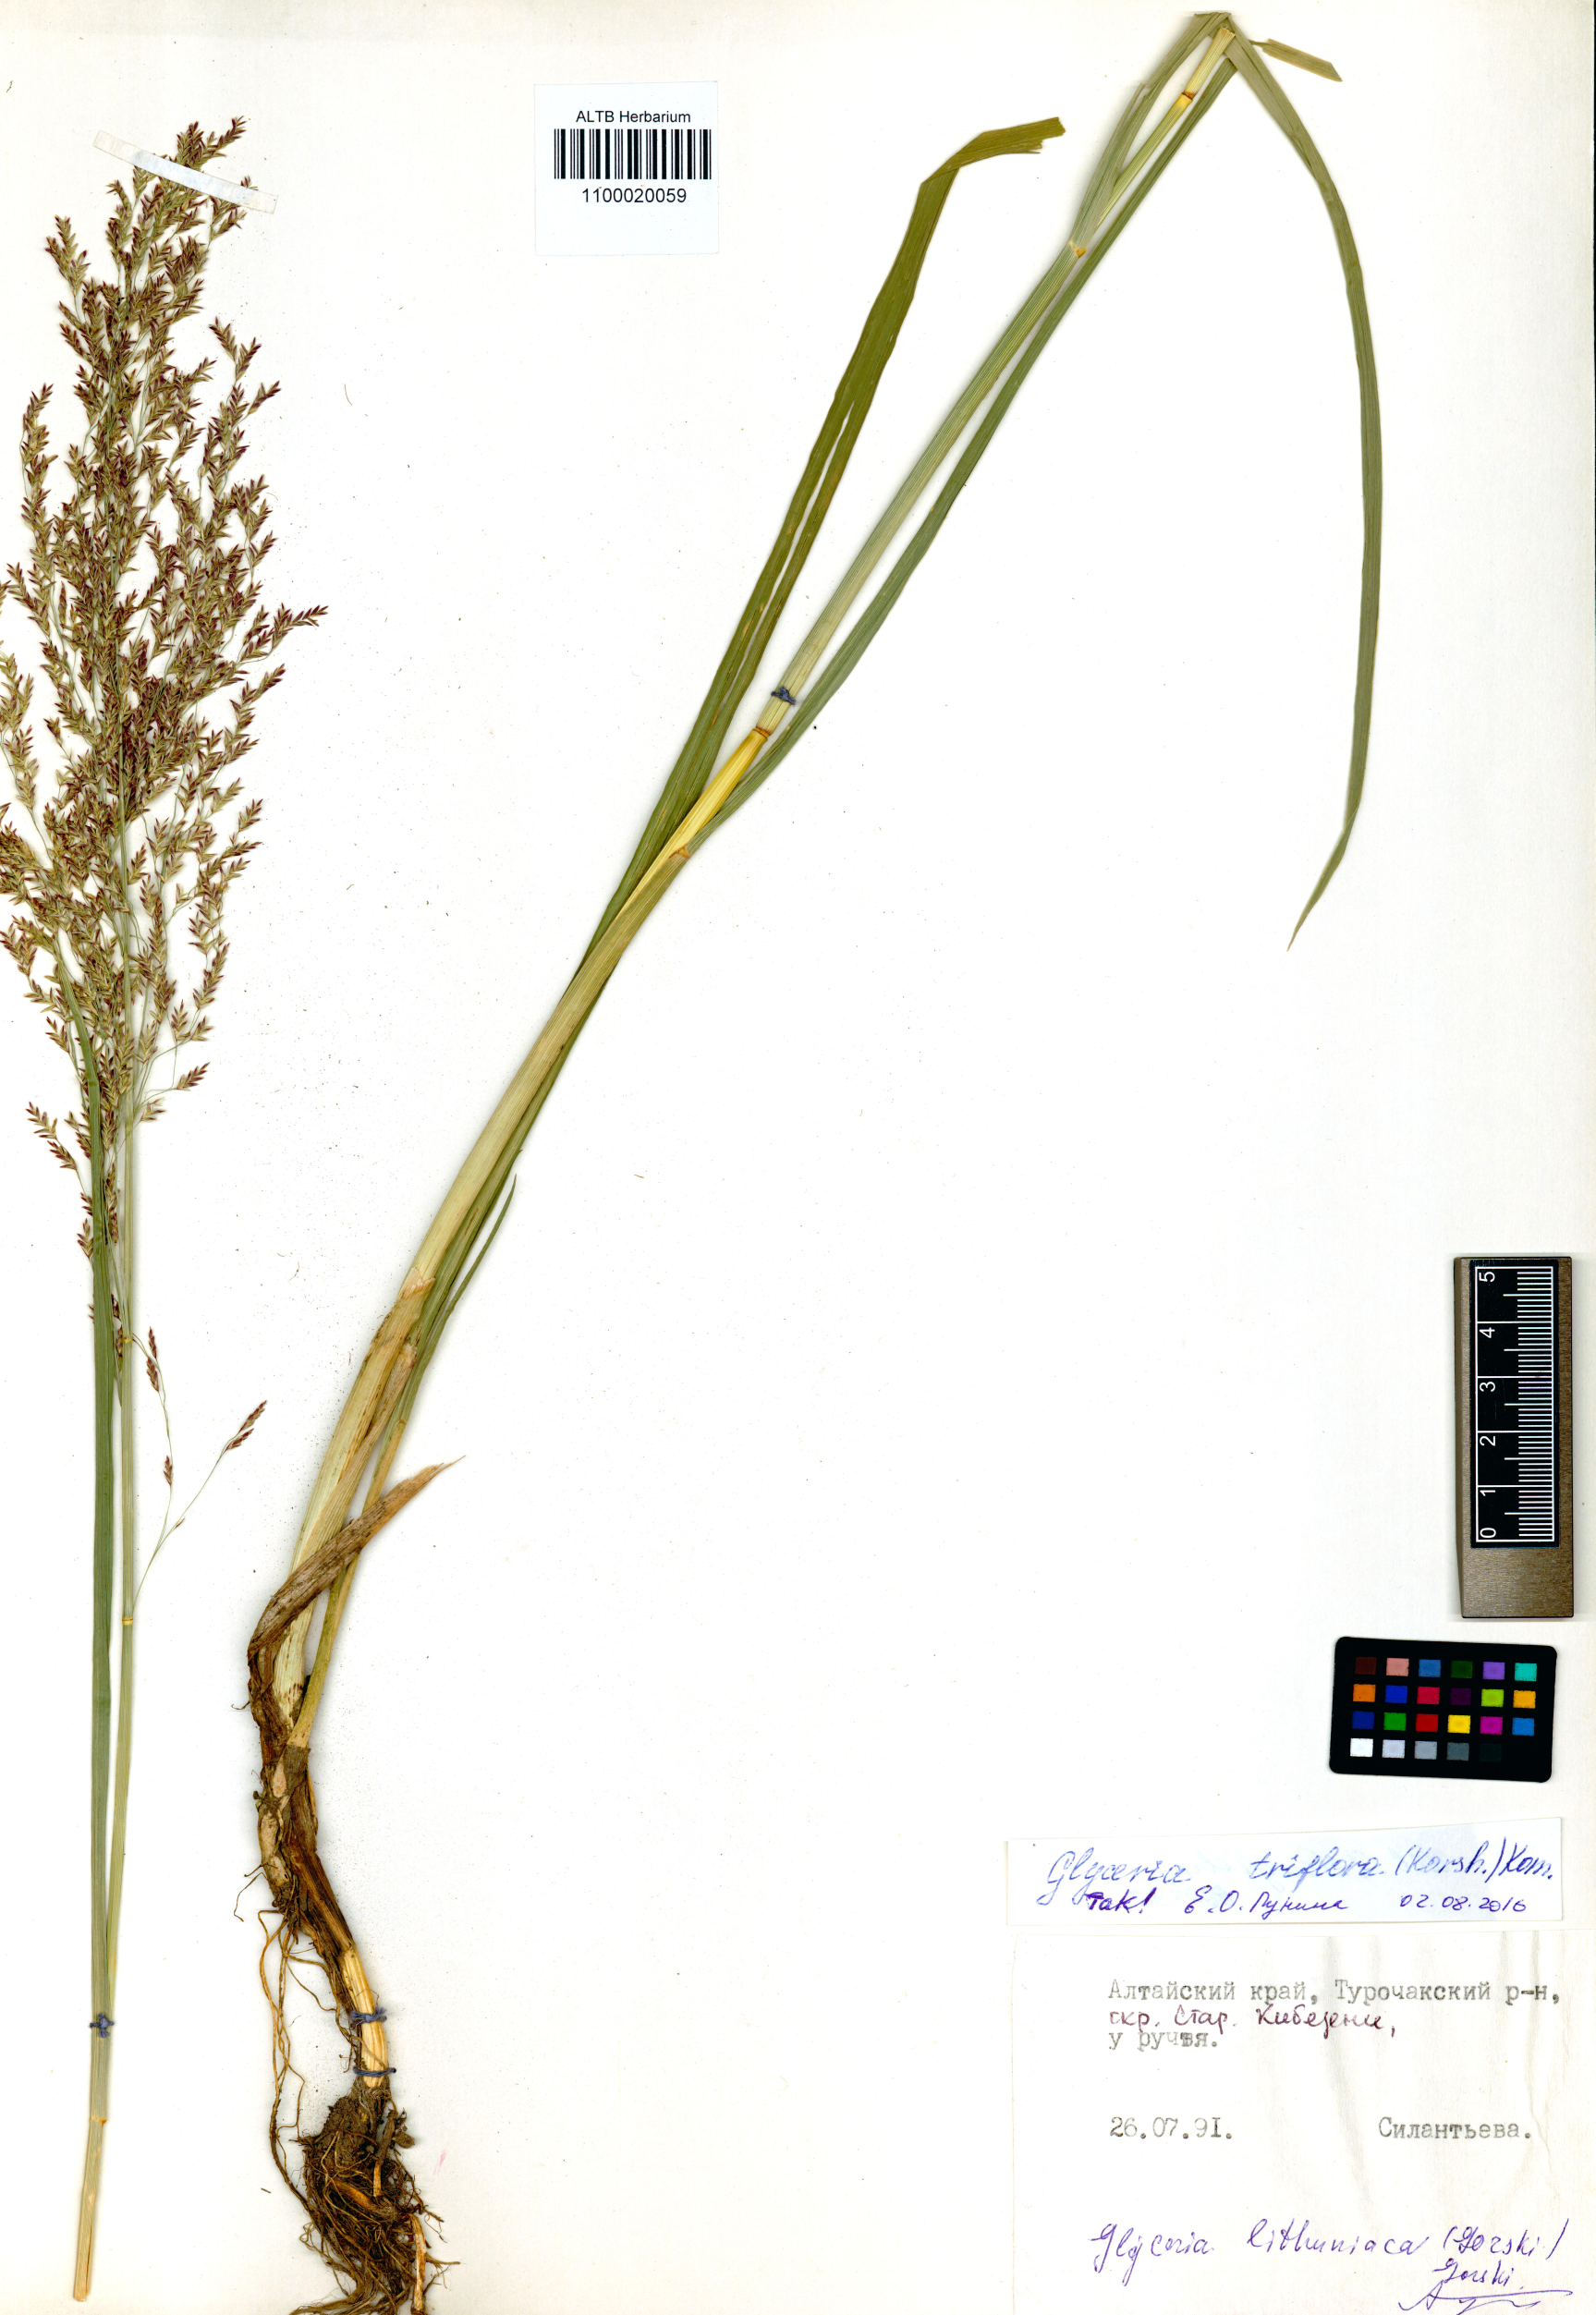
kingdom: Plantae
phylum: Tracheophyta
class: Liliopsida
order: Poales
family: Poaceae
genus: Glyceria
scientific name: Glyceria lithuanica
